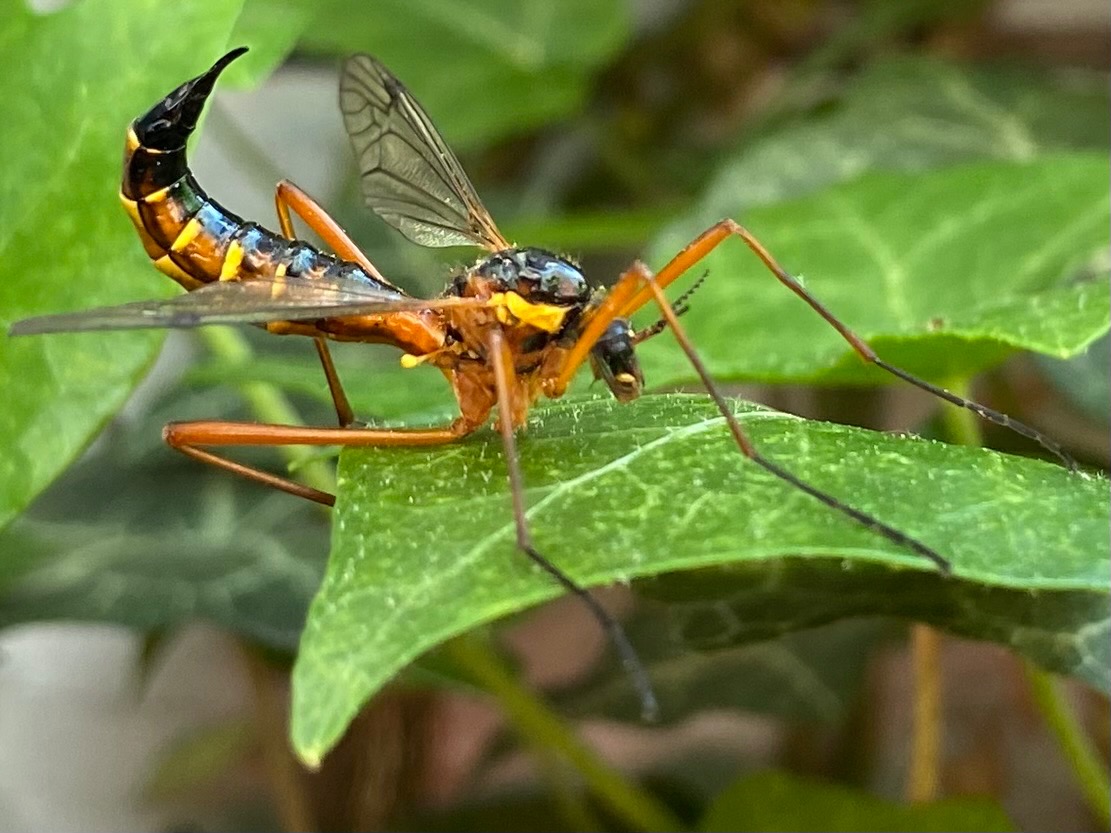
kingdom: Animalia
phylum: Arthropoda
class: Insecta
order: Diptera
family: Tipulidae
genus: Ctenophora
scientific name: Ctenophora pectinicornis
